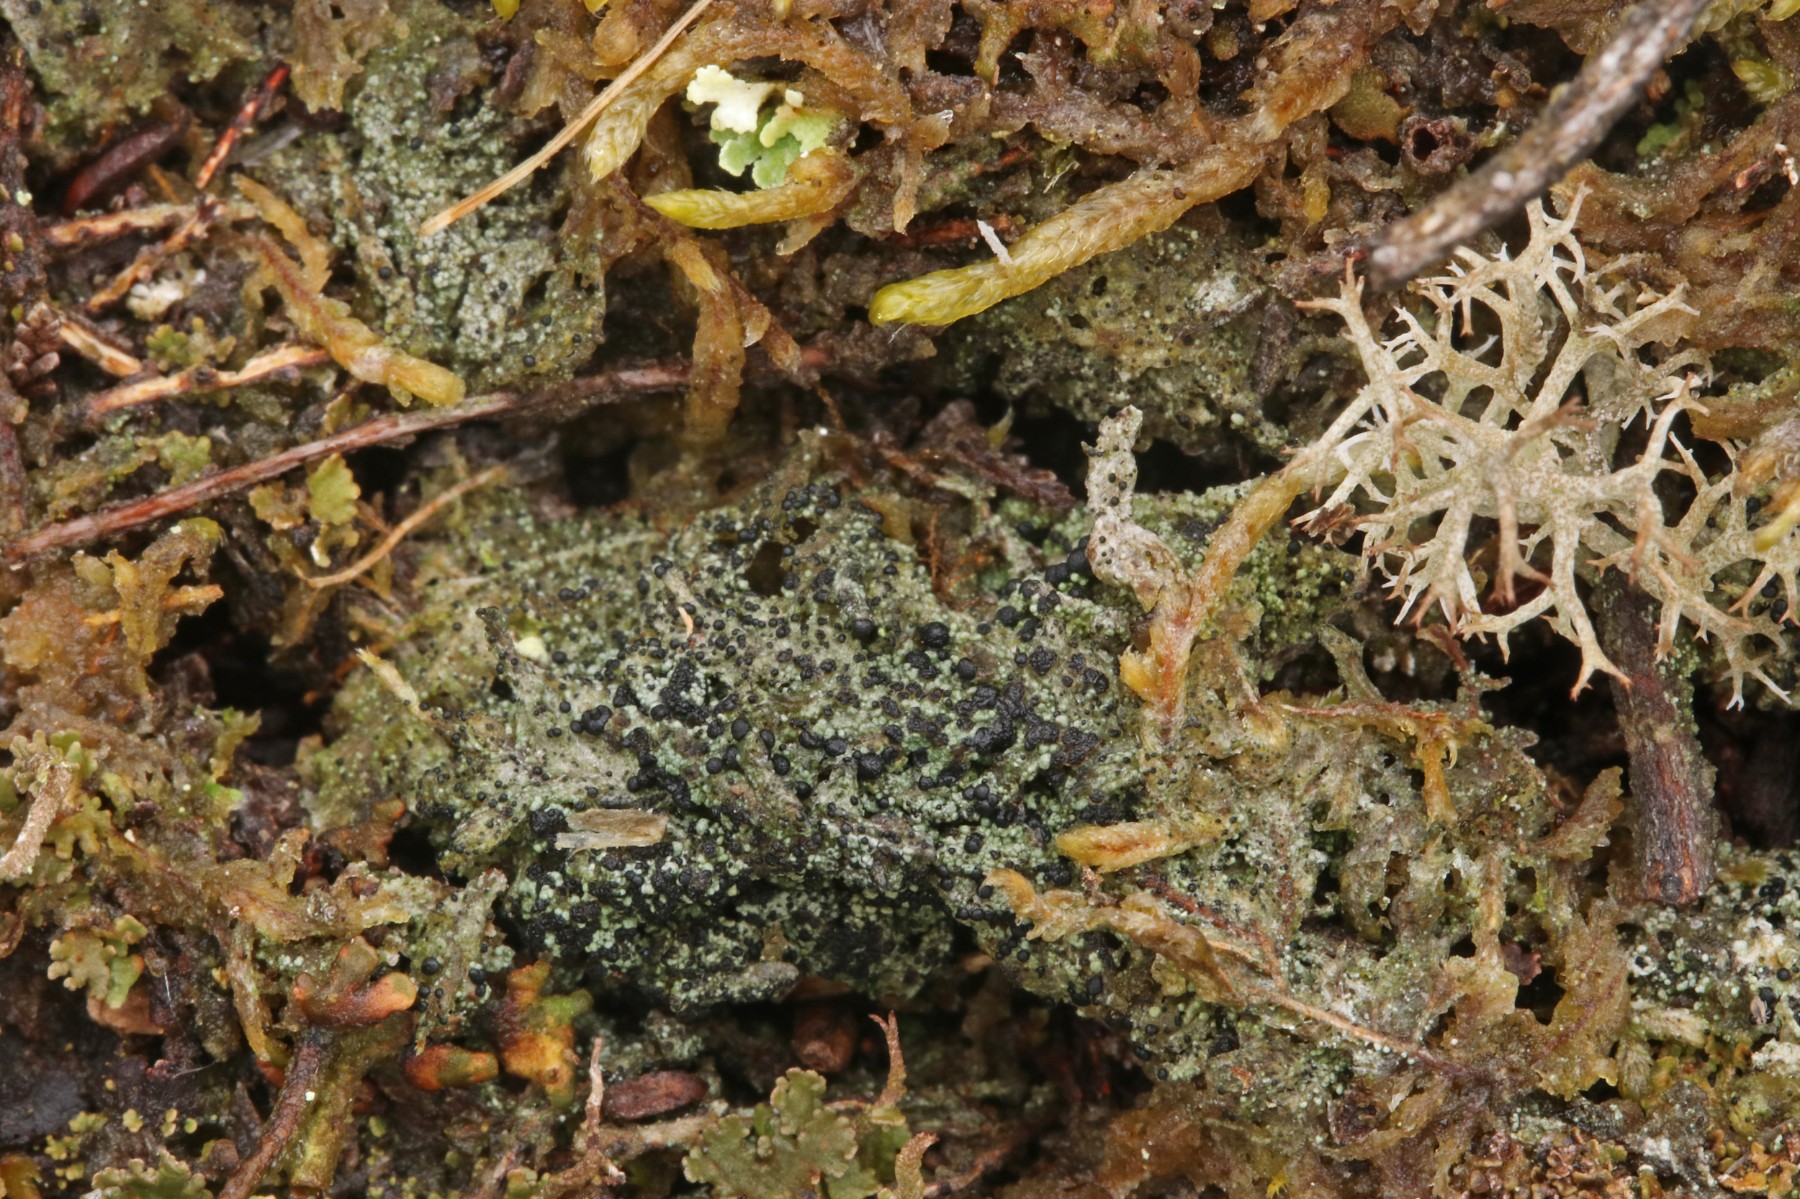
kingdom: Fungi
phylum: Ascomycota
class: Lecanoromycetes
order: Lecanorales
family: Byssolomataceae
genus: Micarea
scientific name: Micarea lignaria
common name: tørve-knaplav
